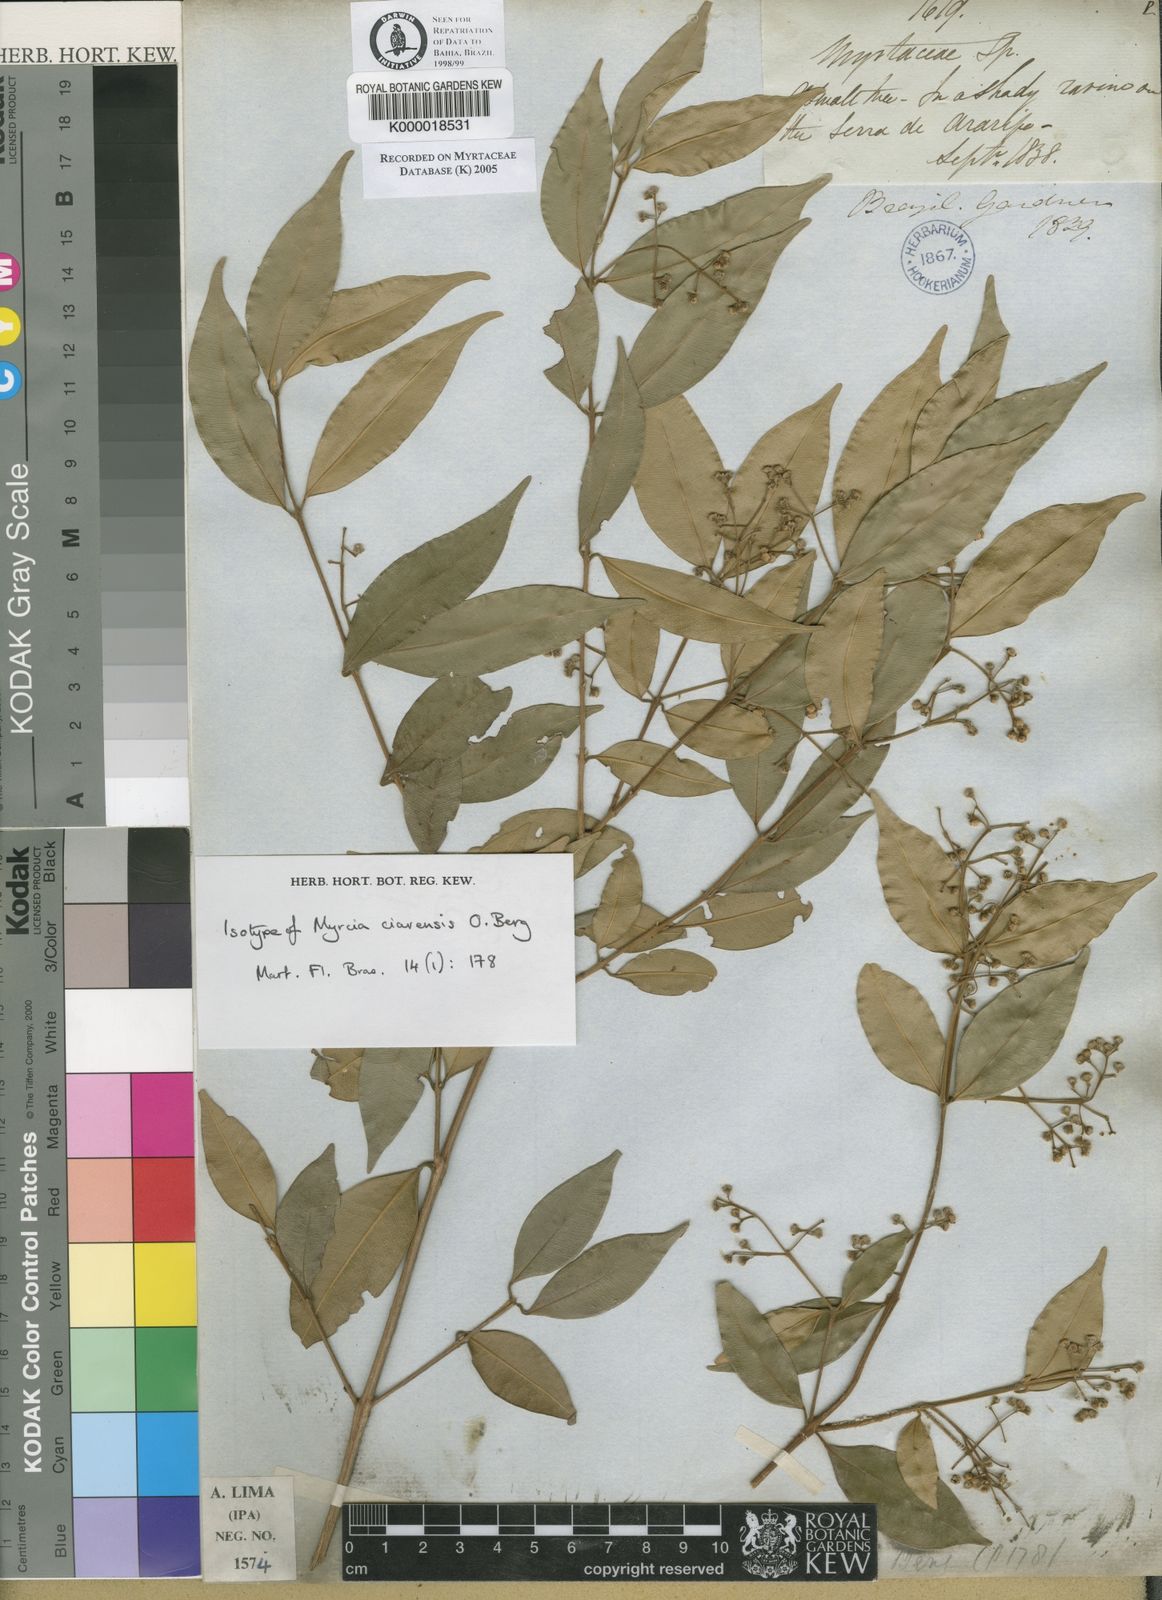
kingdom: Plantae
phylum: Tracheophyta
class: Magnoliopsida
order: Myrtales
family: Myrtaceae
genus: Myrcia
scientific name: Myrcia splendens
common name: Surinam cherry
